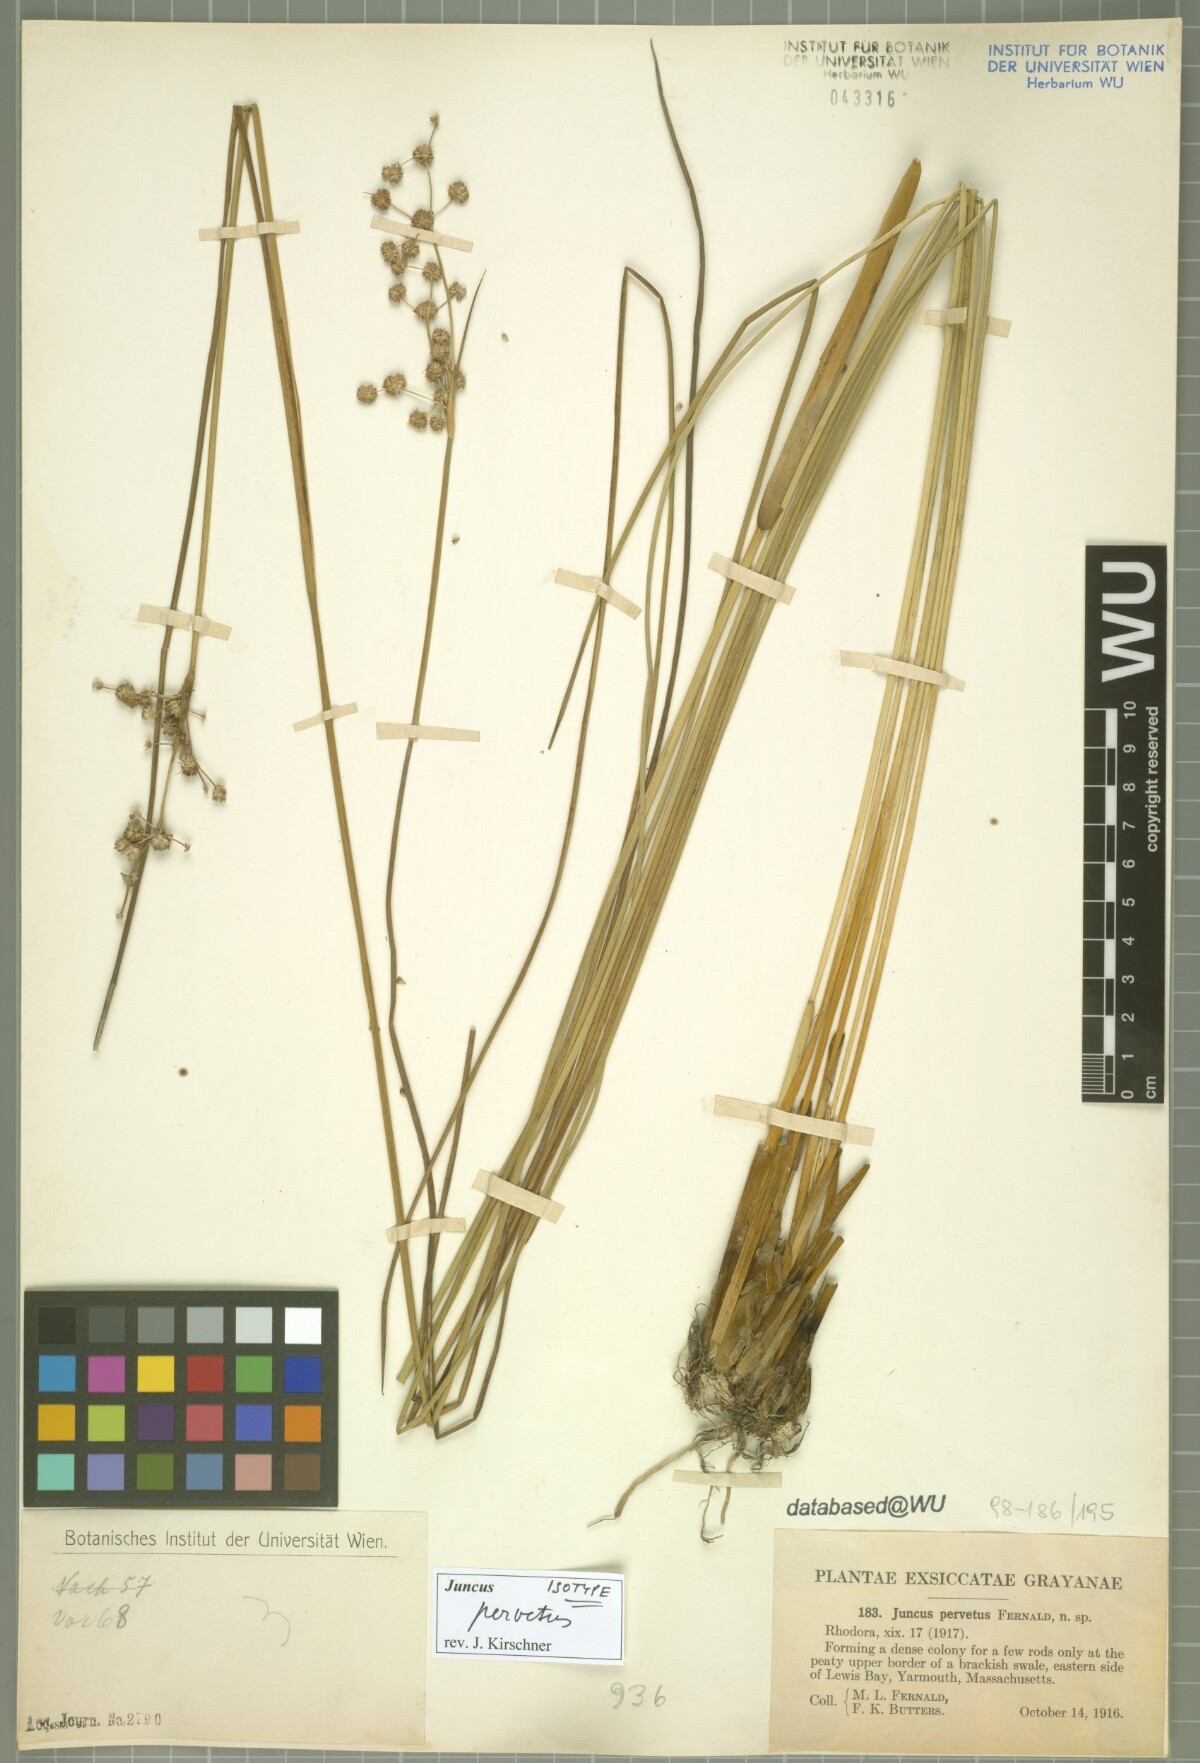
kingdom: Plantae
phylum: Tracheophyta
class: Liliopsida
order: Poales
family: Juncaceae
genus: Juncus
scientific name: Juncus subnodulosus
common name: Blunt-flowered rush
